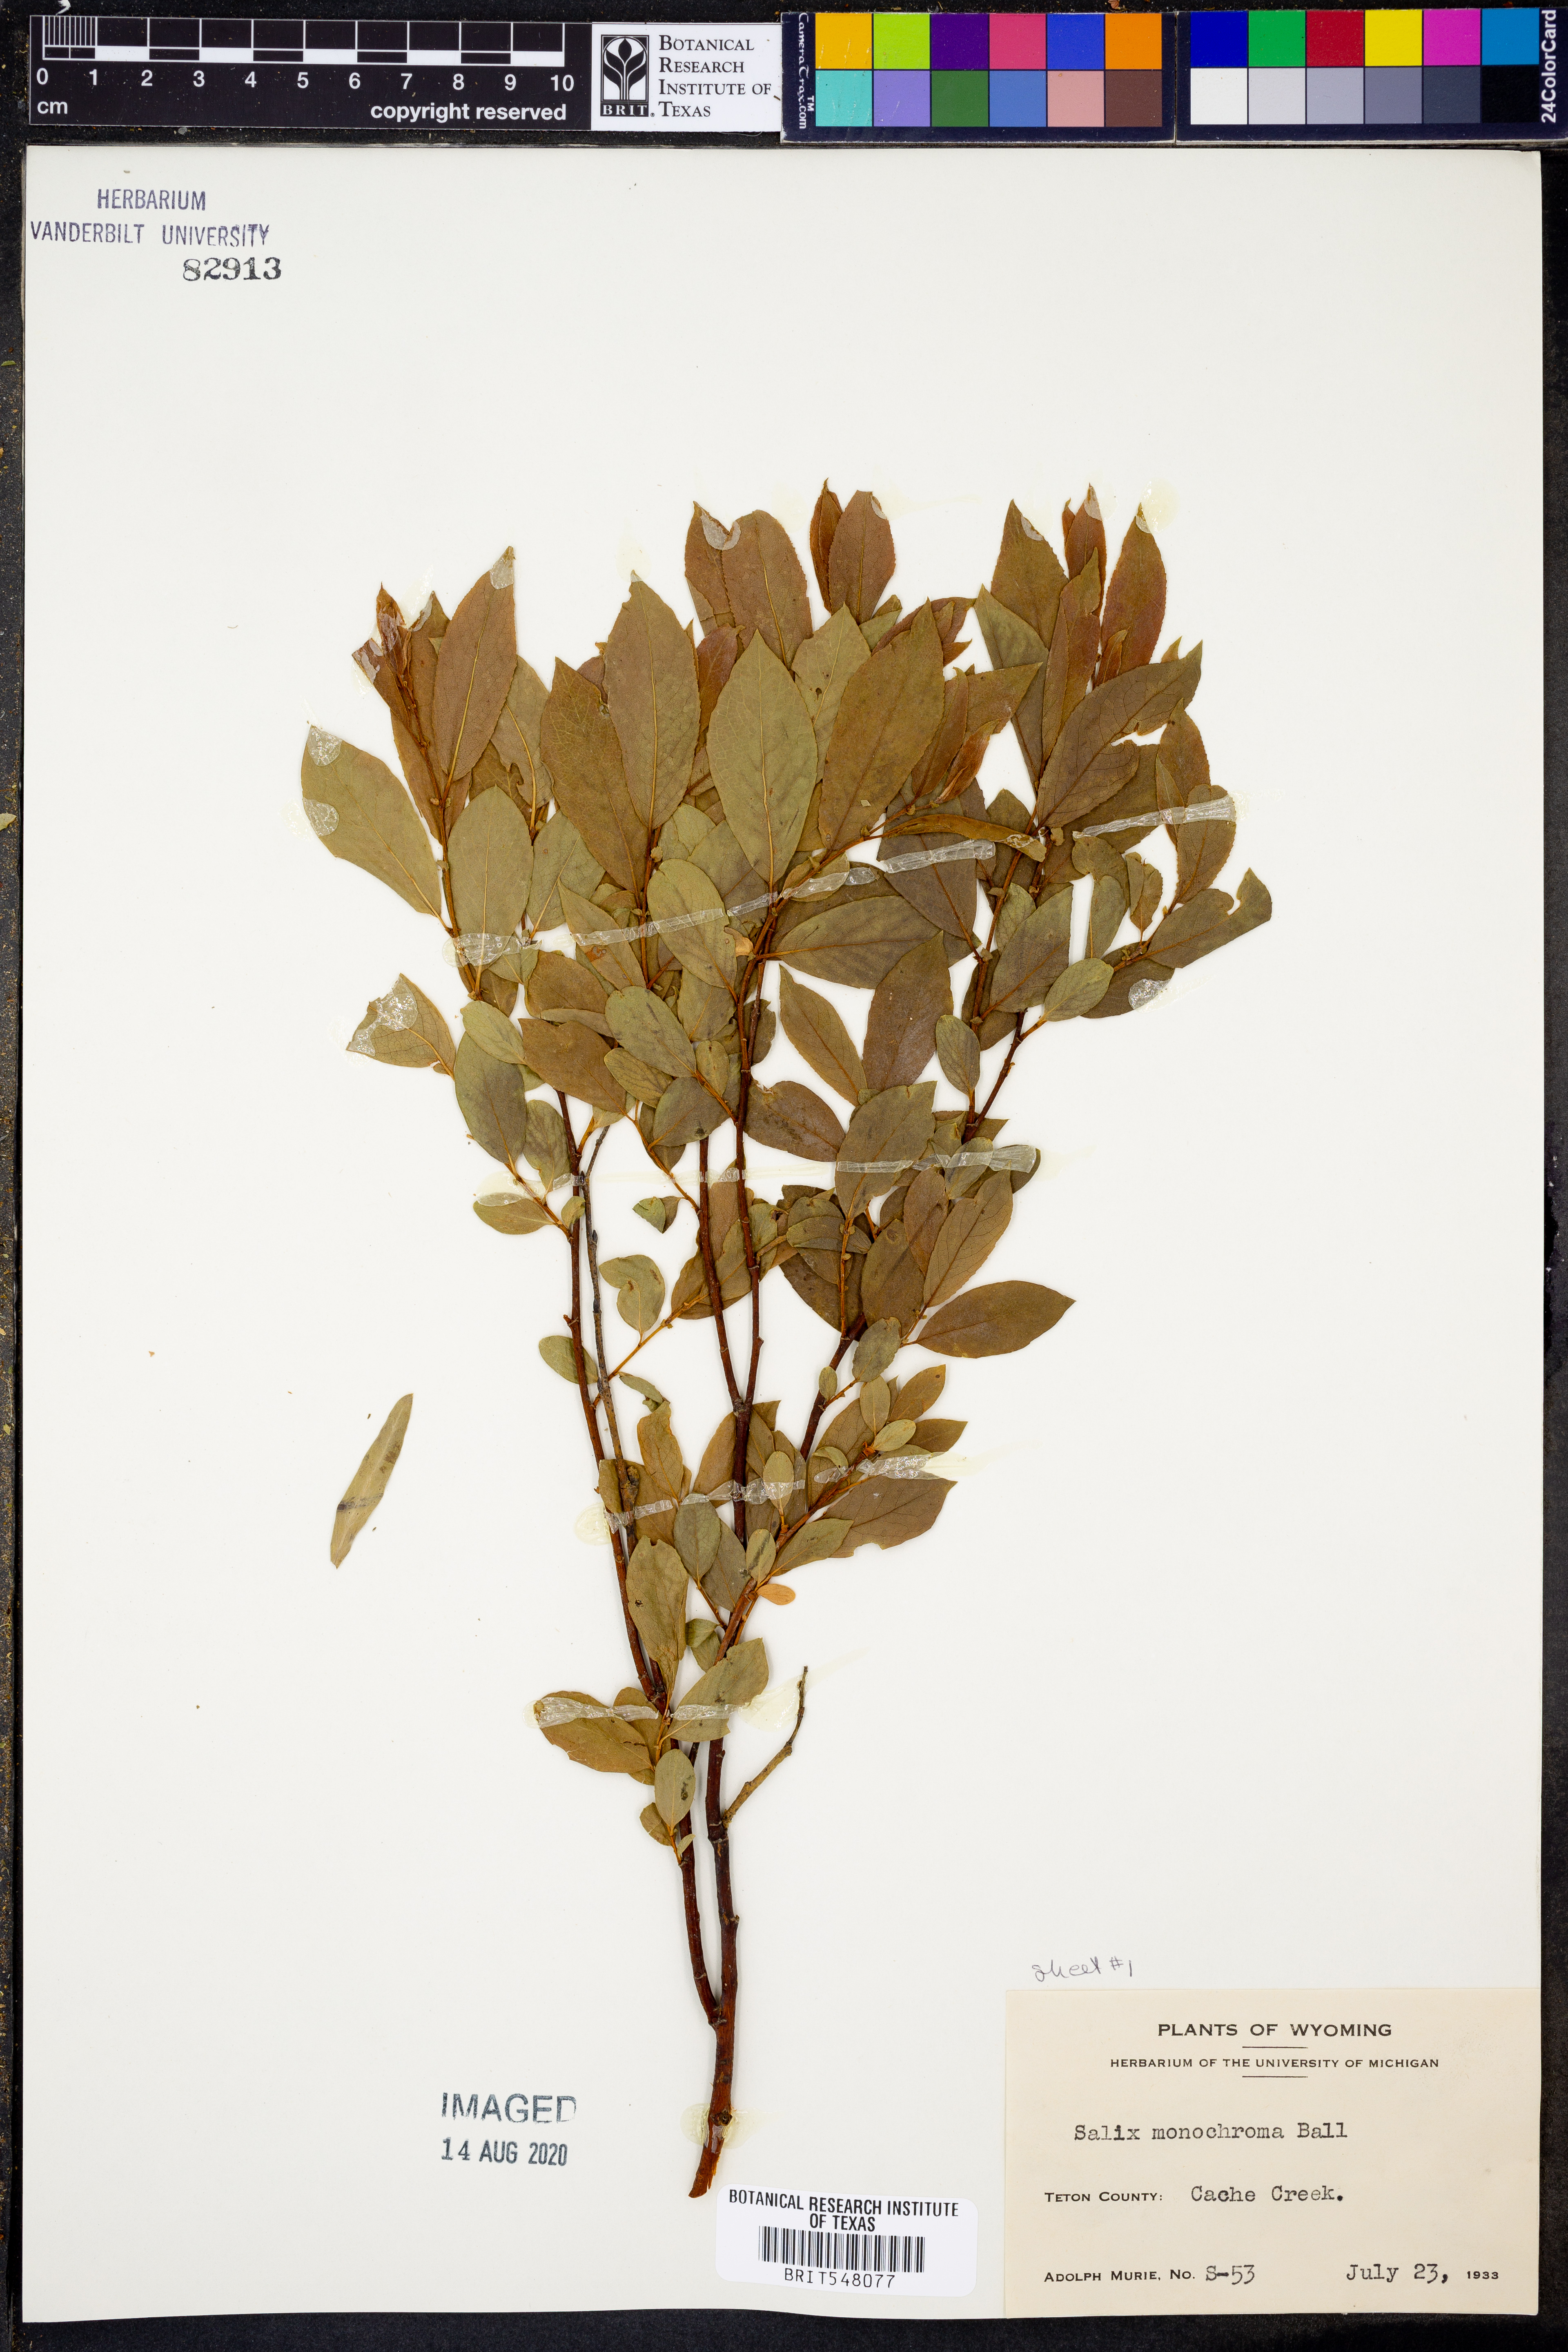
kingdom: Plantae
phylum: Tracheophyta
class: Magnoliopsida
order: Malpighiales
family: Salicaceae
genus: Salix
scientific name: Salix monochroma
